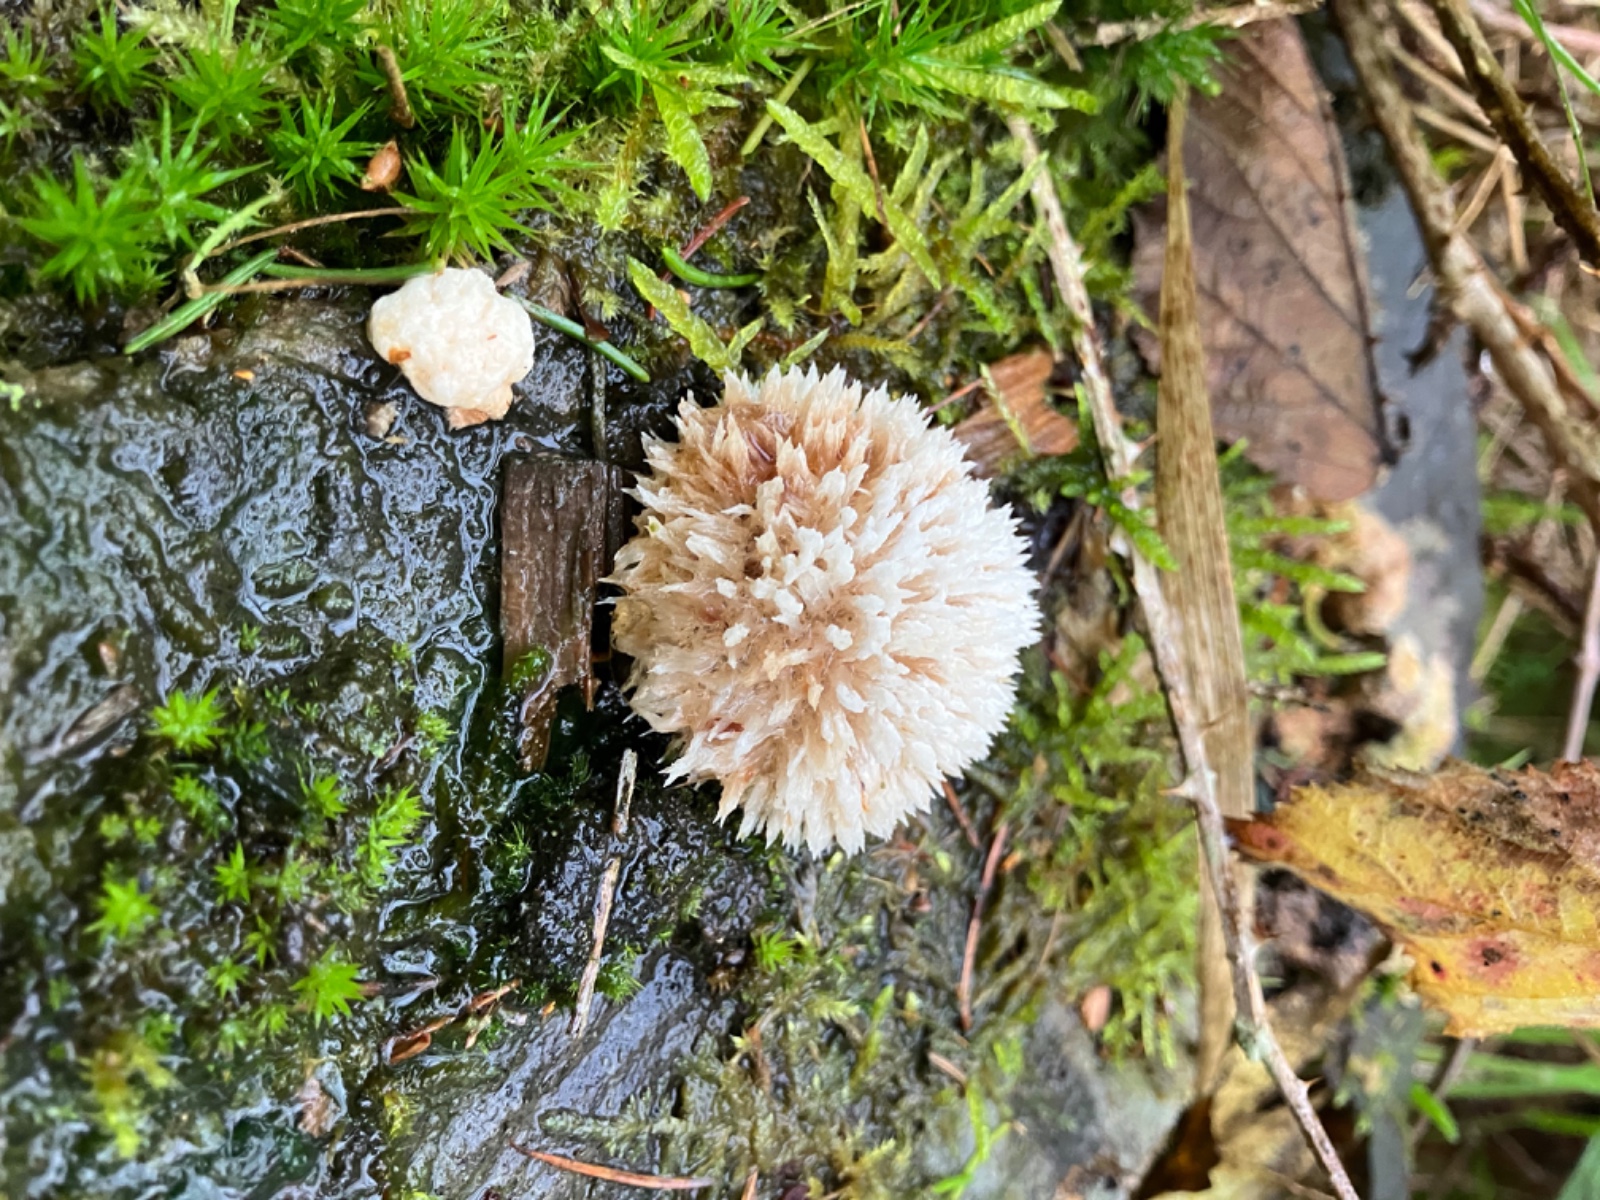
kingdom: Fungi
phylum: Basidiomycota
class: Agaricomycetes
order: Polyporales
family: Dacryobolaceae
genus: Postia
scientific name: Postia ptychogaster
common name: støvende kødporesvamp
